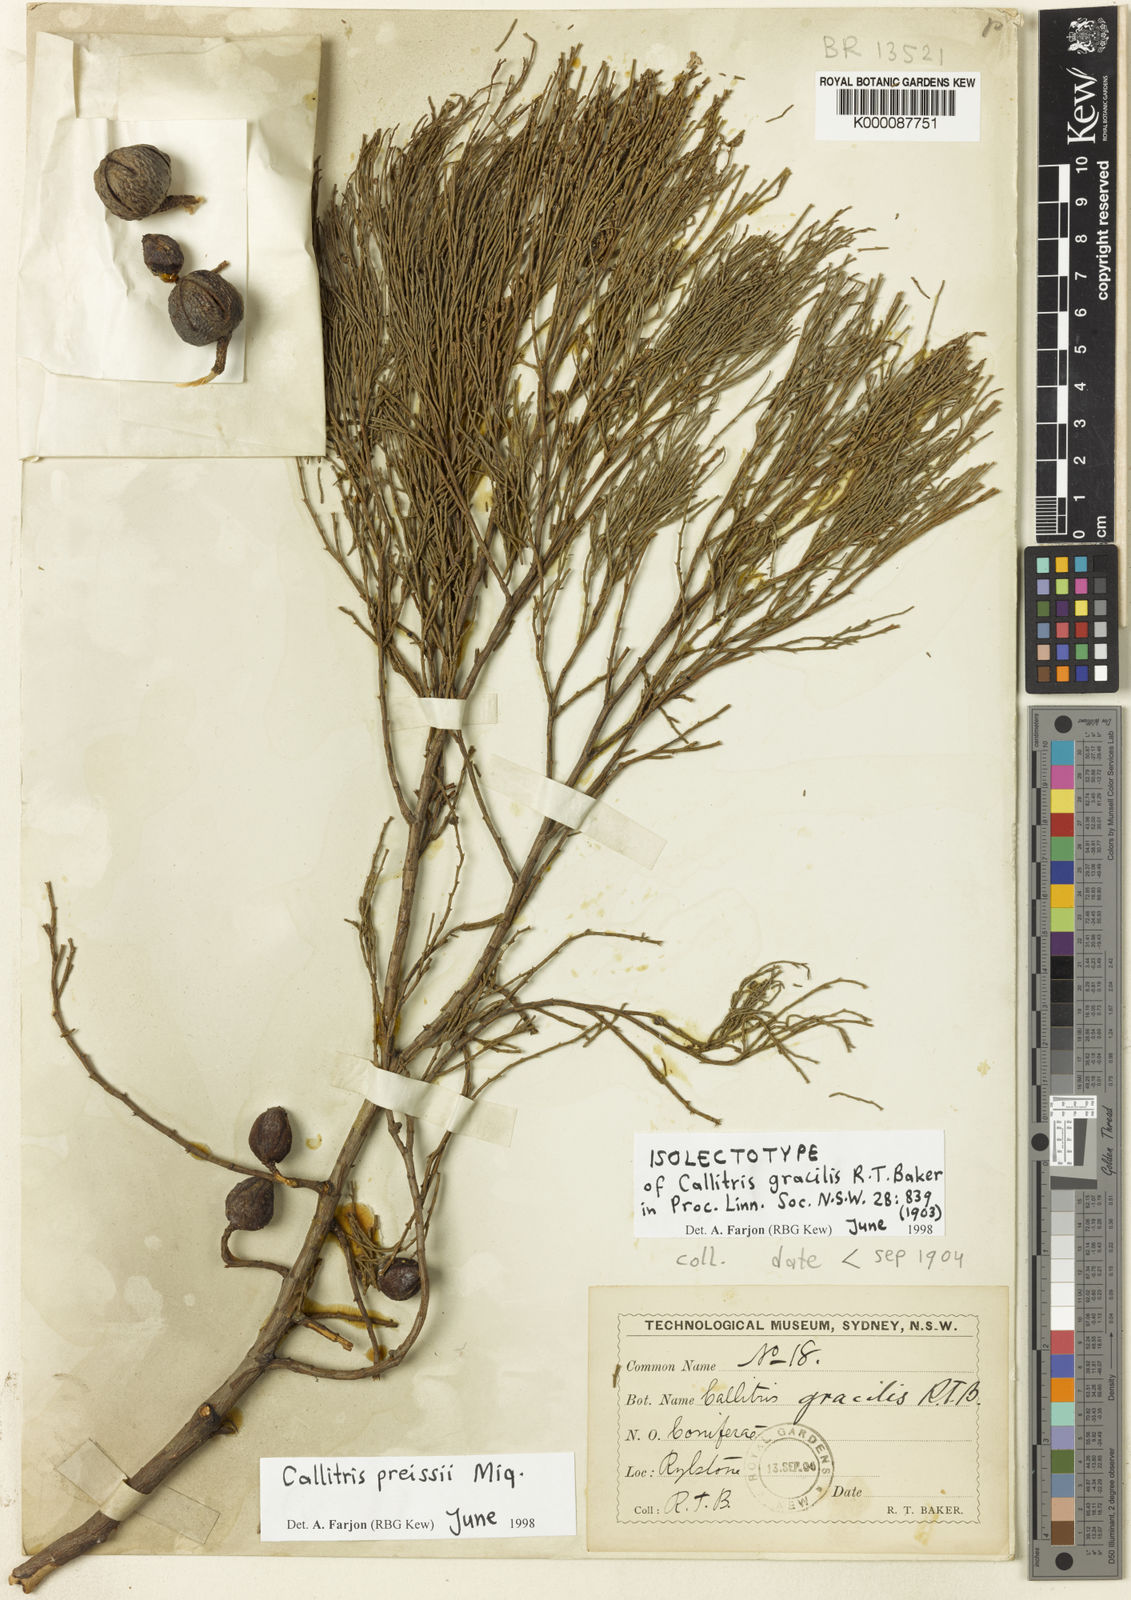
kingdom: Plantae
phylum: Tracheophyta
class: Pinopsida
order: Pinales
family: Cupressaceae
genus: Callitris
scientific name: Callitris preissii
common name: Mallee pine
